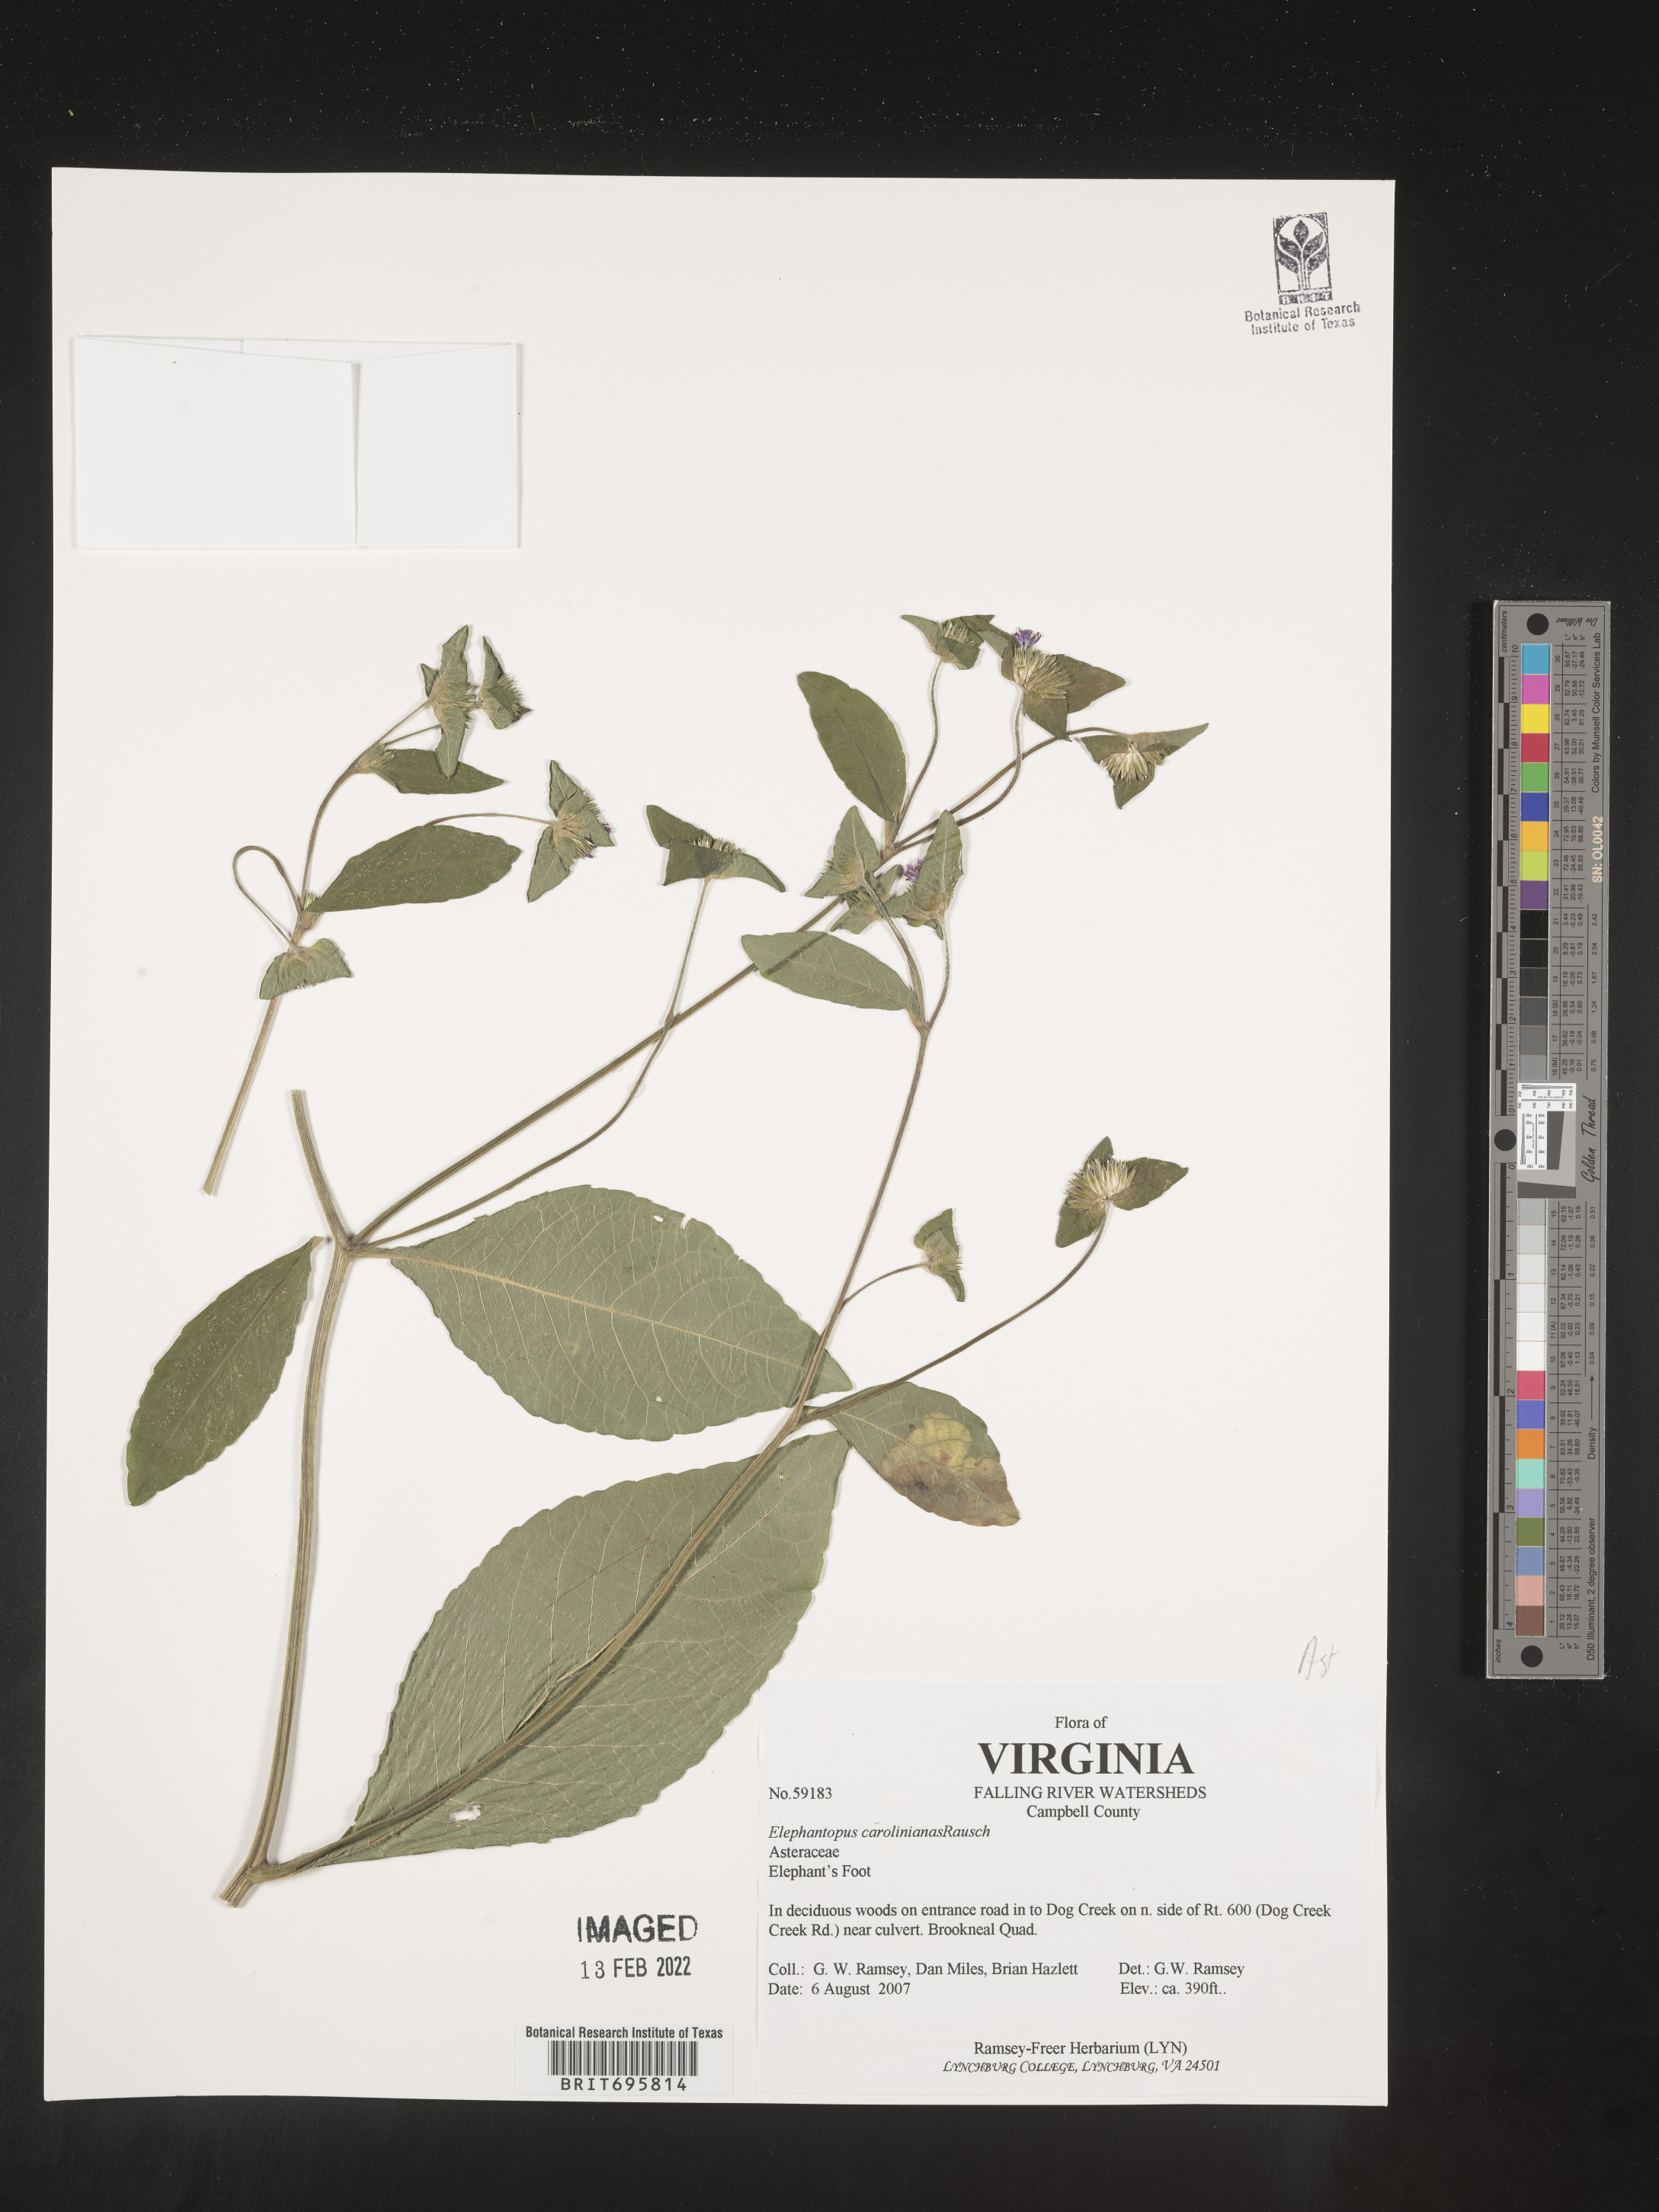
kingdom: Plantae
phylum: Tracheophyta
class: Magnoliopsida
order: Asterales
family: Asteraceae
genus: Elephantopus
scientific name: Elephantopus carolinianus
